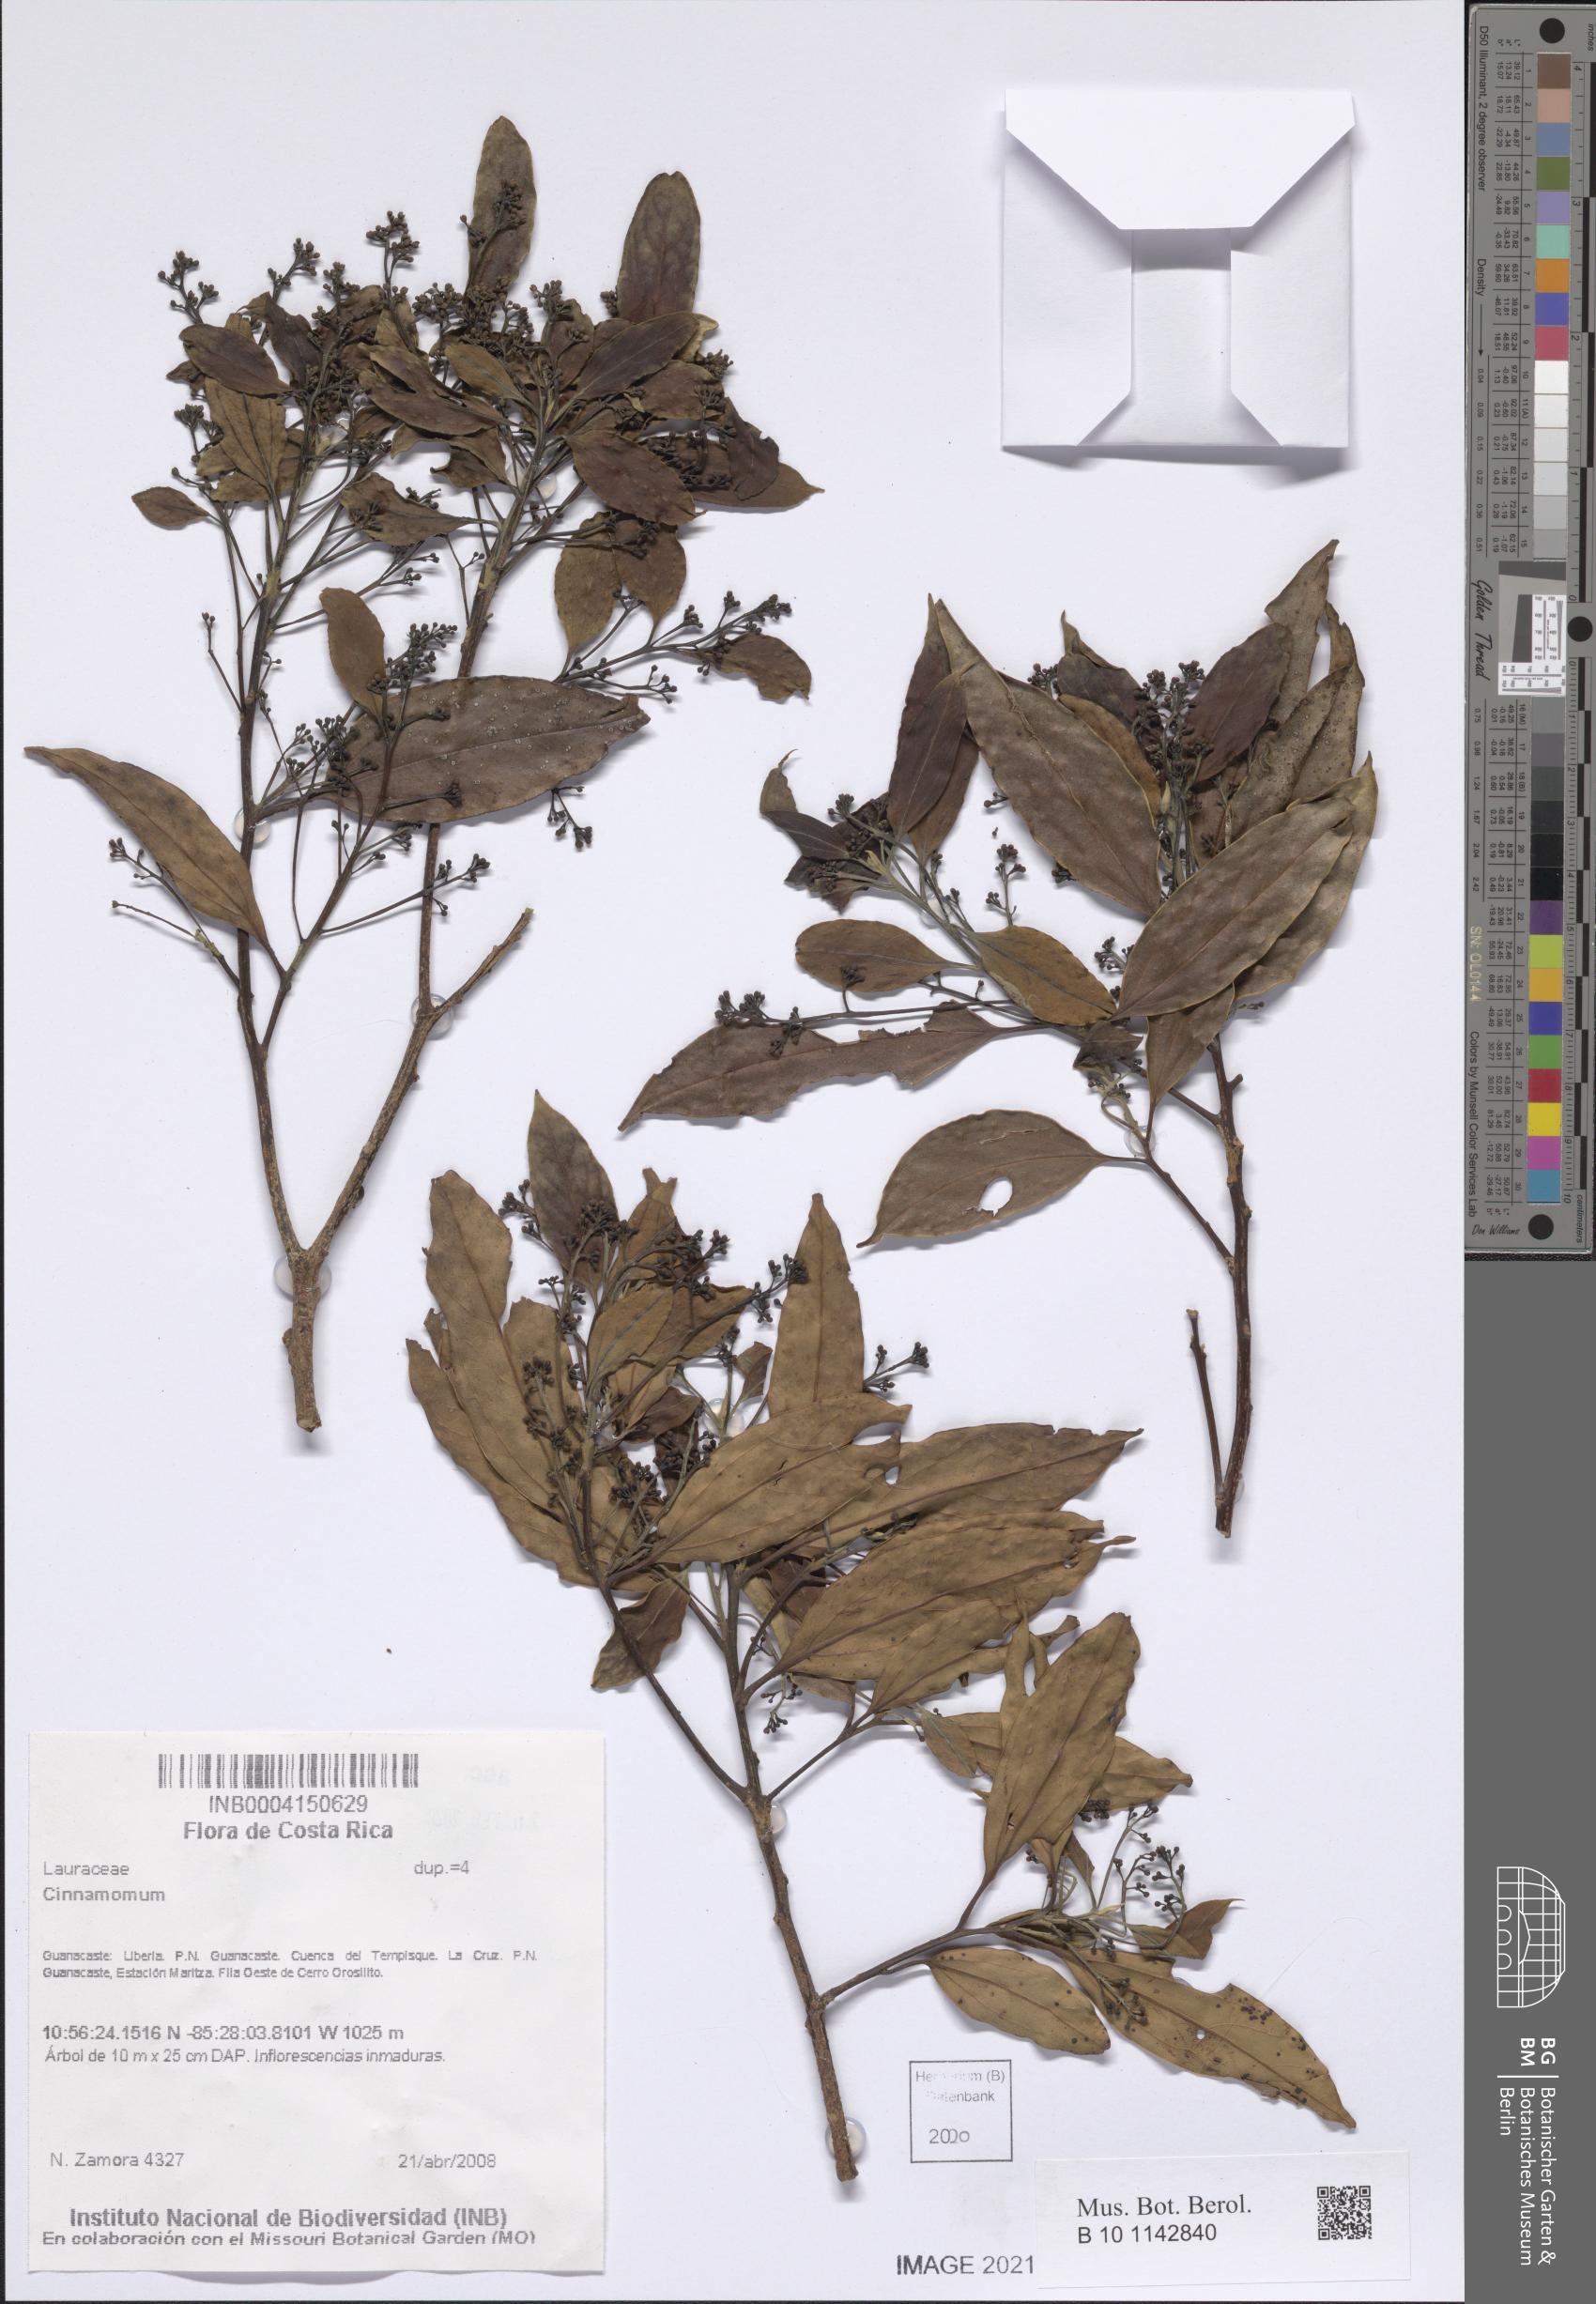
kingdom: Plantae
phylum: Tracheophyta
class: Magnoliopsida
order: Laurales
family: Lauraceae
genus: Cinnamomum
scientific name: Cinnamomum
